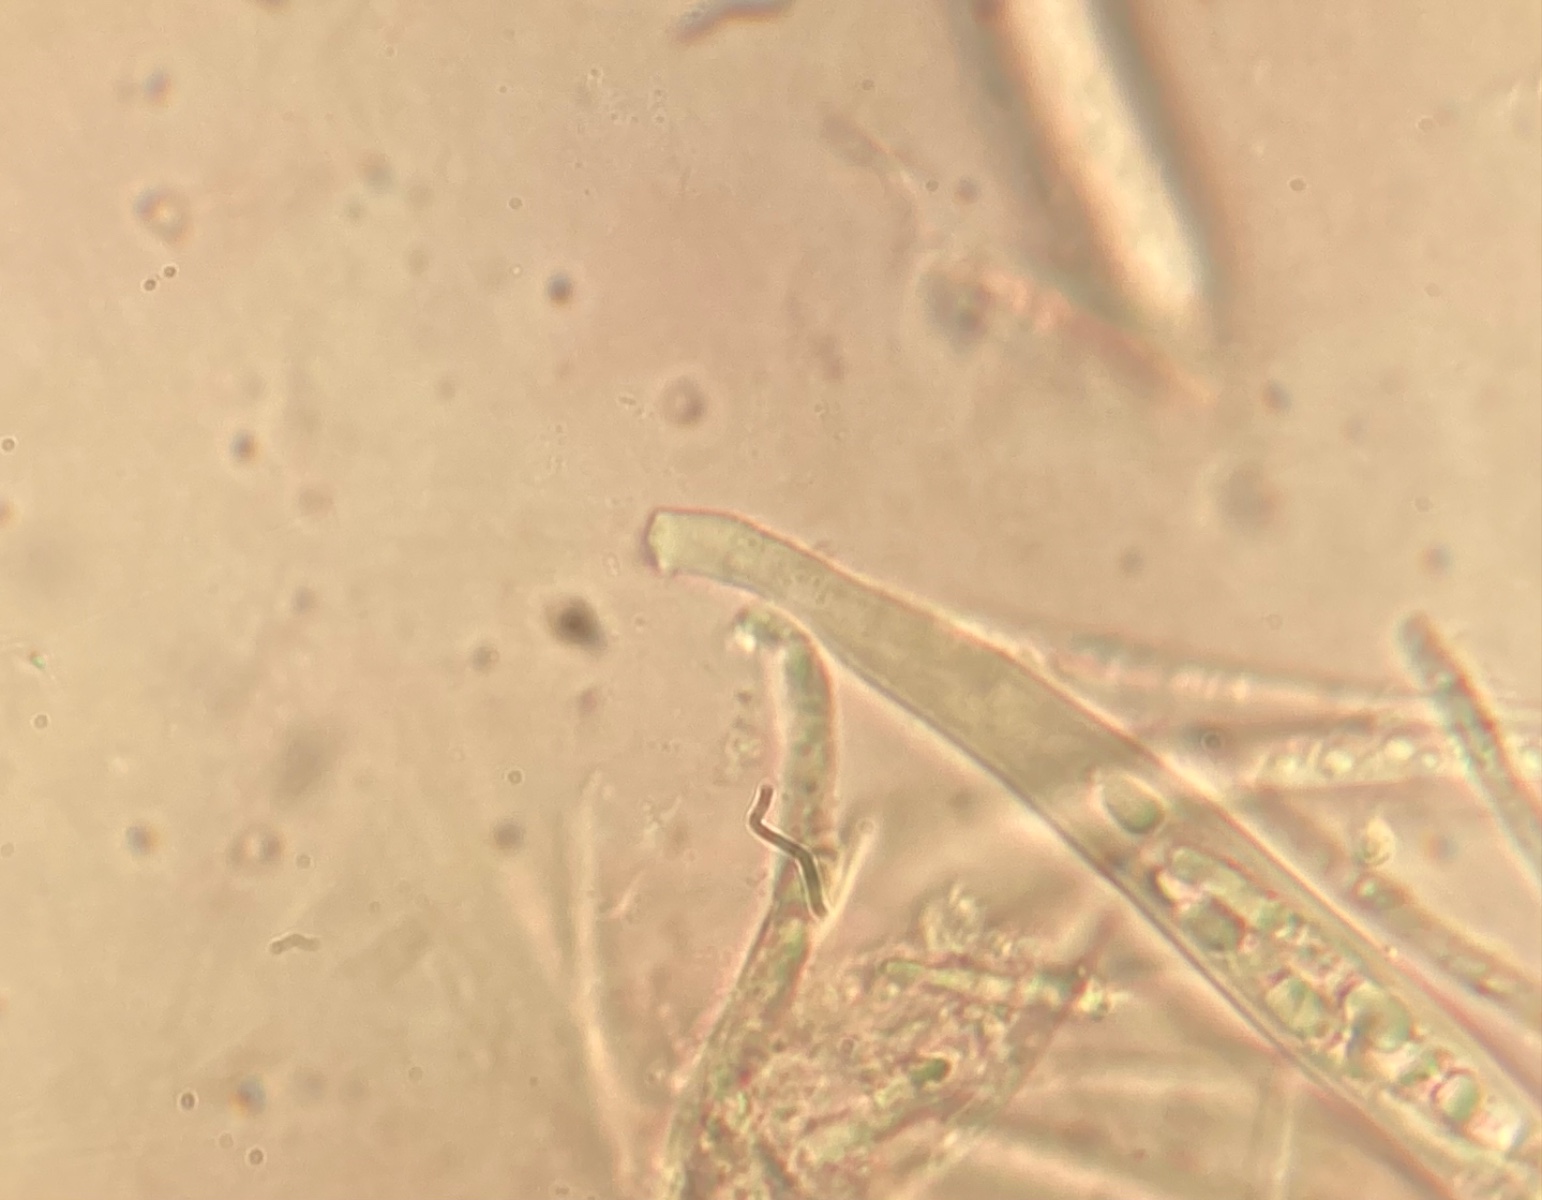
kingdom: Fungi
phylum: Ascomycota
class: Leotiomycetes
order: Helotiales
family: Helotiaceae
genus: Hymenoscyphus
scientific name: Hymenoscyphus
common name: stilkskive
